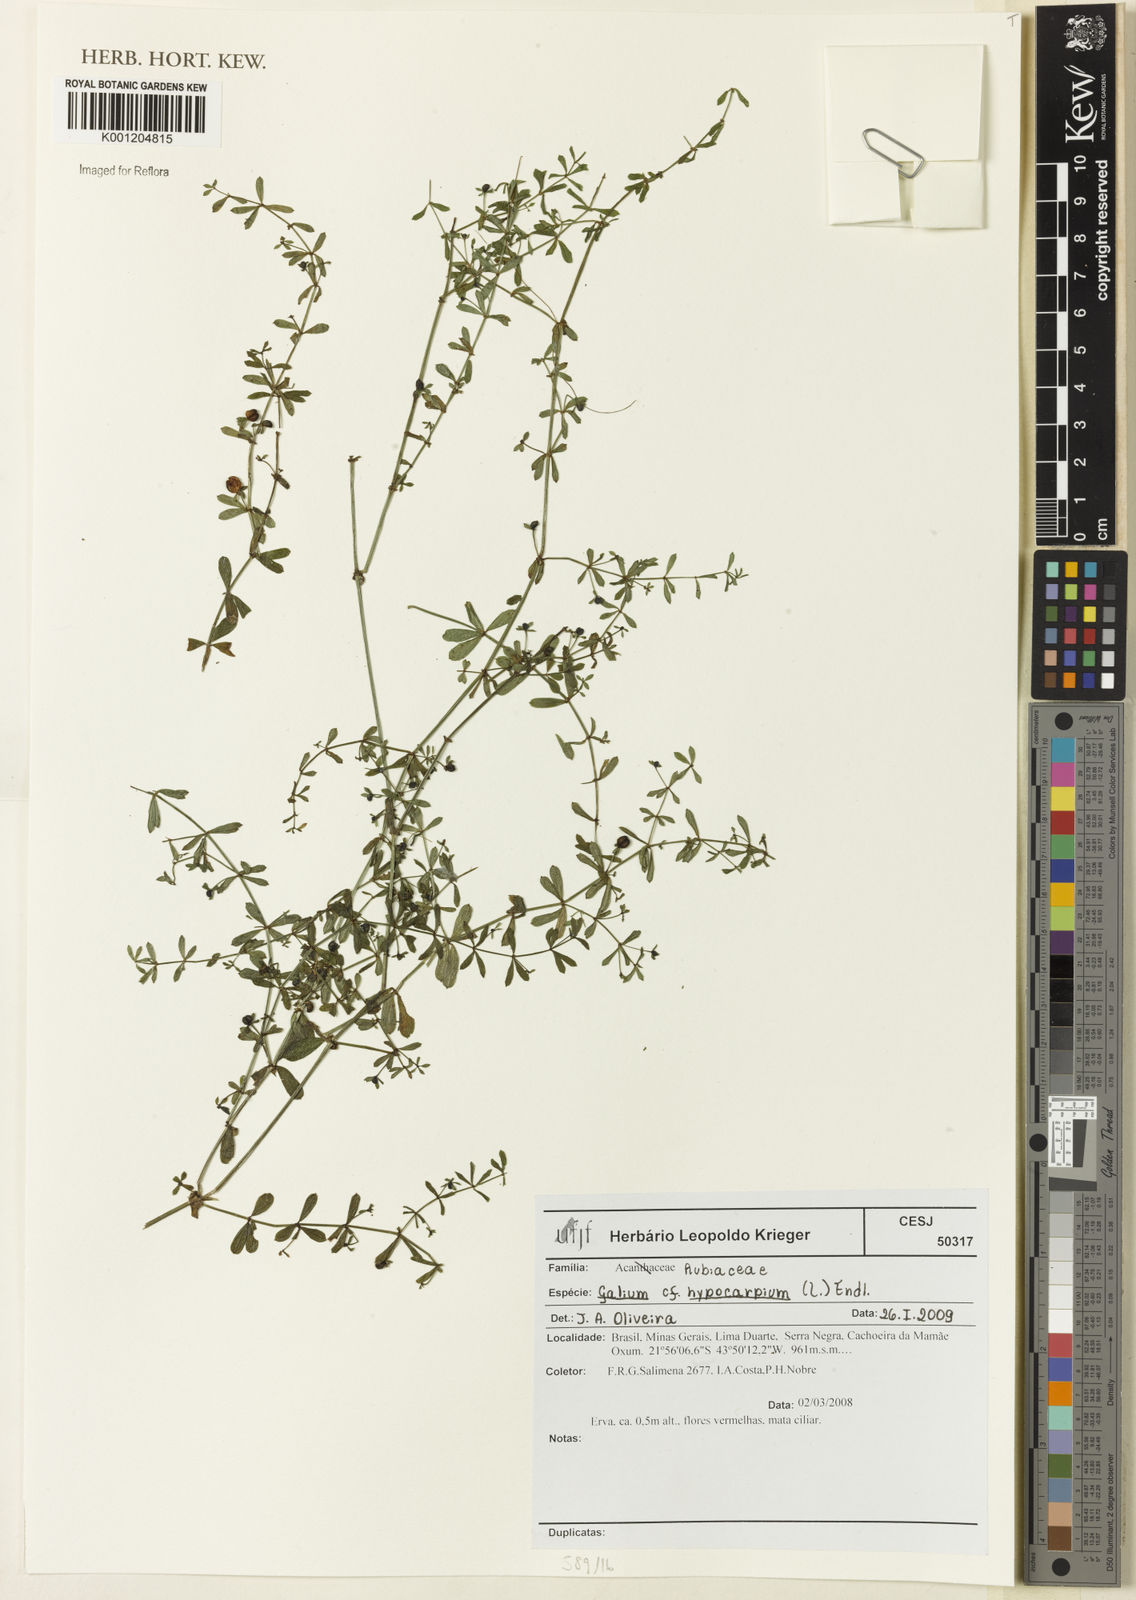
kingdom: Plantae
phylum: Tracheophyta
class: Magnoliopsida
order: Gentianales
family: Rubiaceae
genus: Galium
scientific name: Galium hypocarpium
